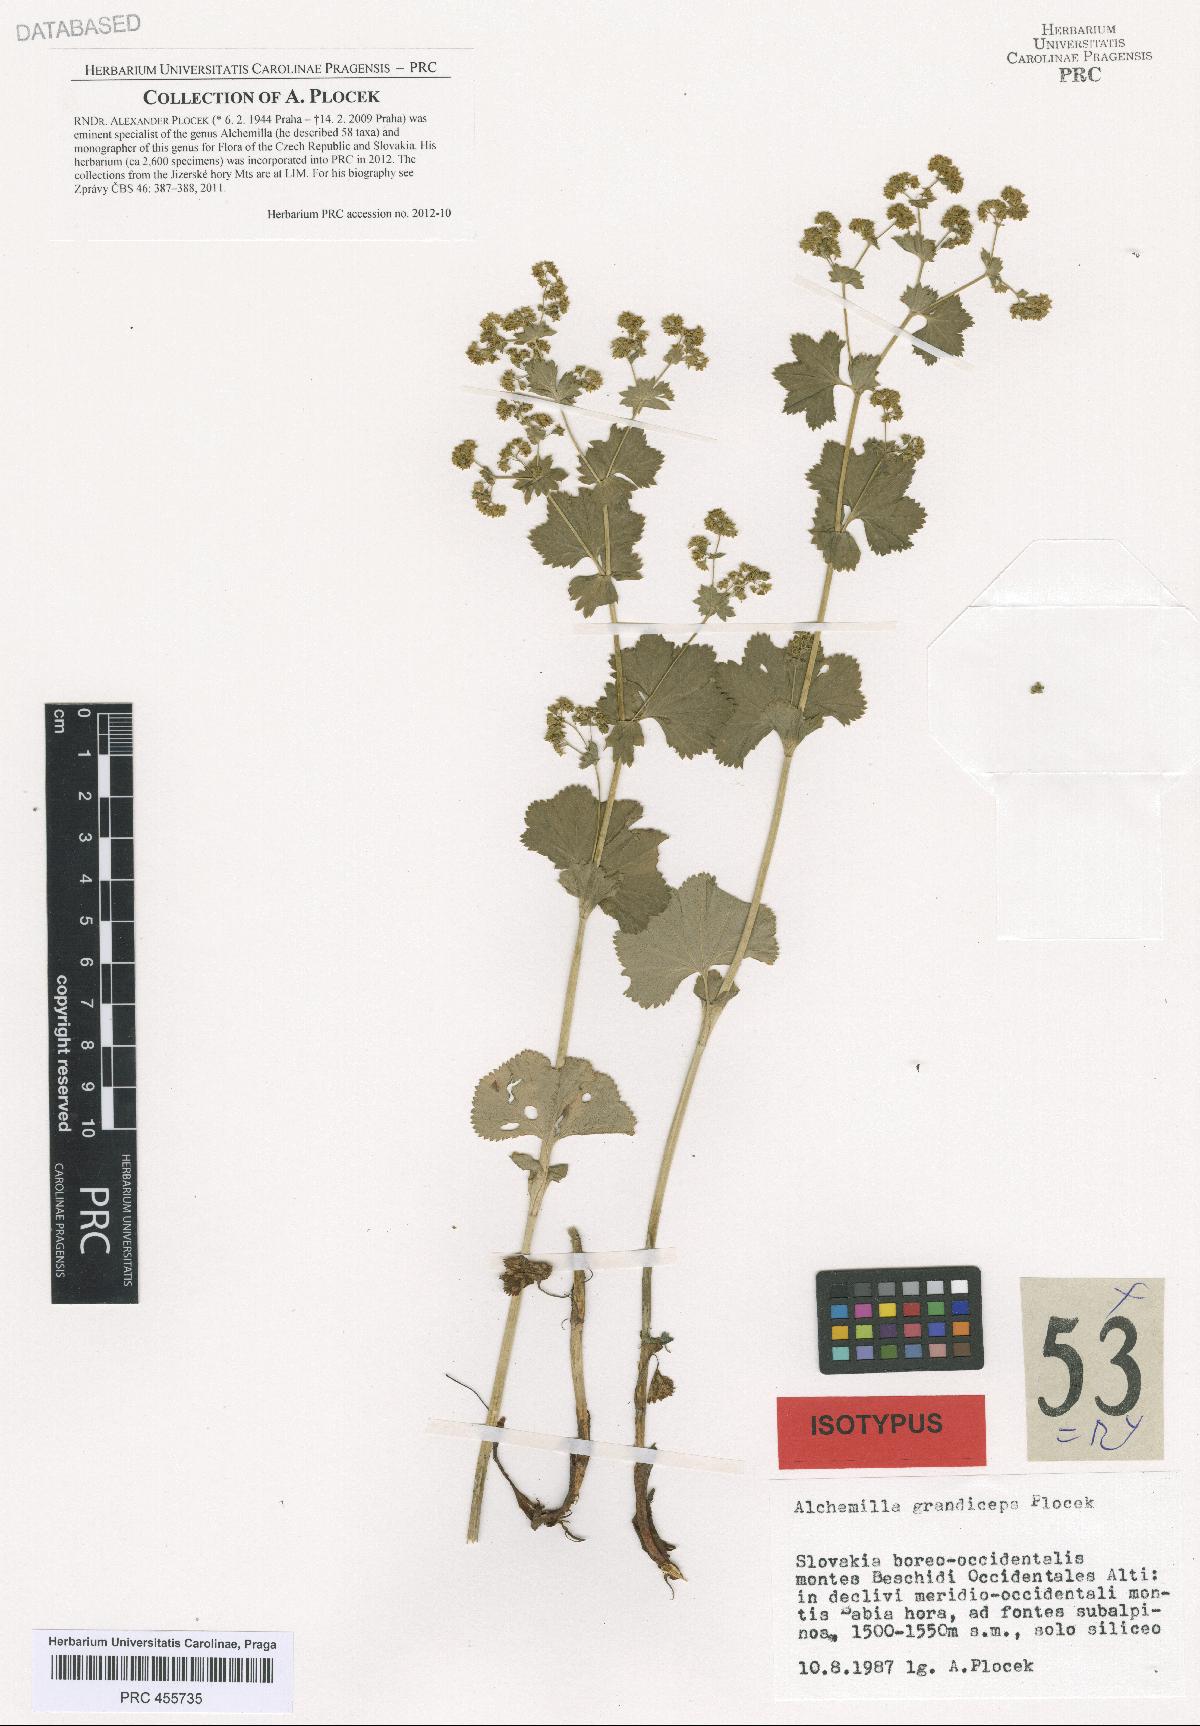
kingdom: Plantae
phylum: Tracheophyta
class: Magnoliopsida
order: Rosales
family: Rosaceae
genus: Alchemilla
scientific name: Alchemilla grandiceps
